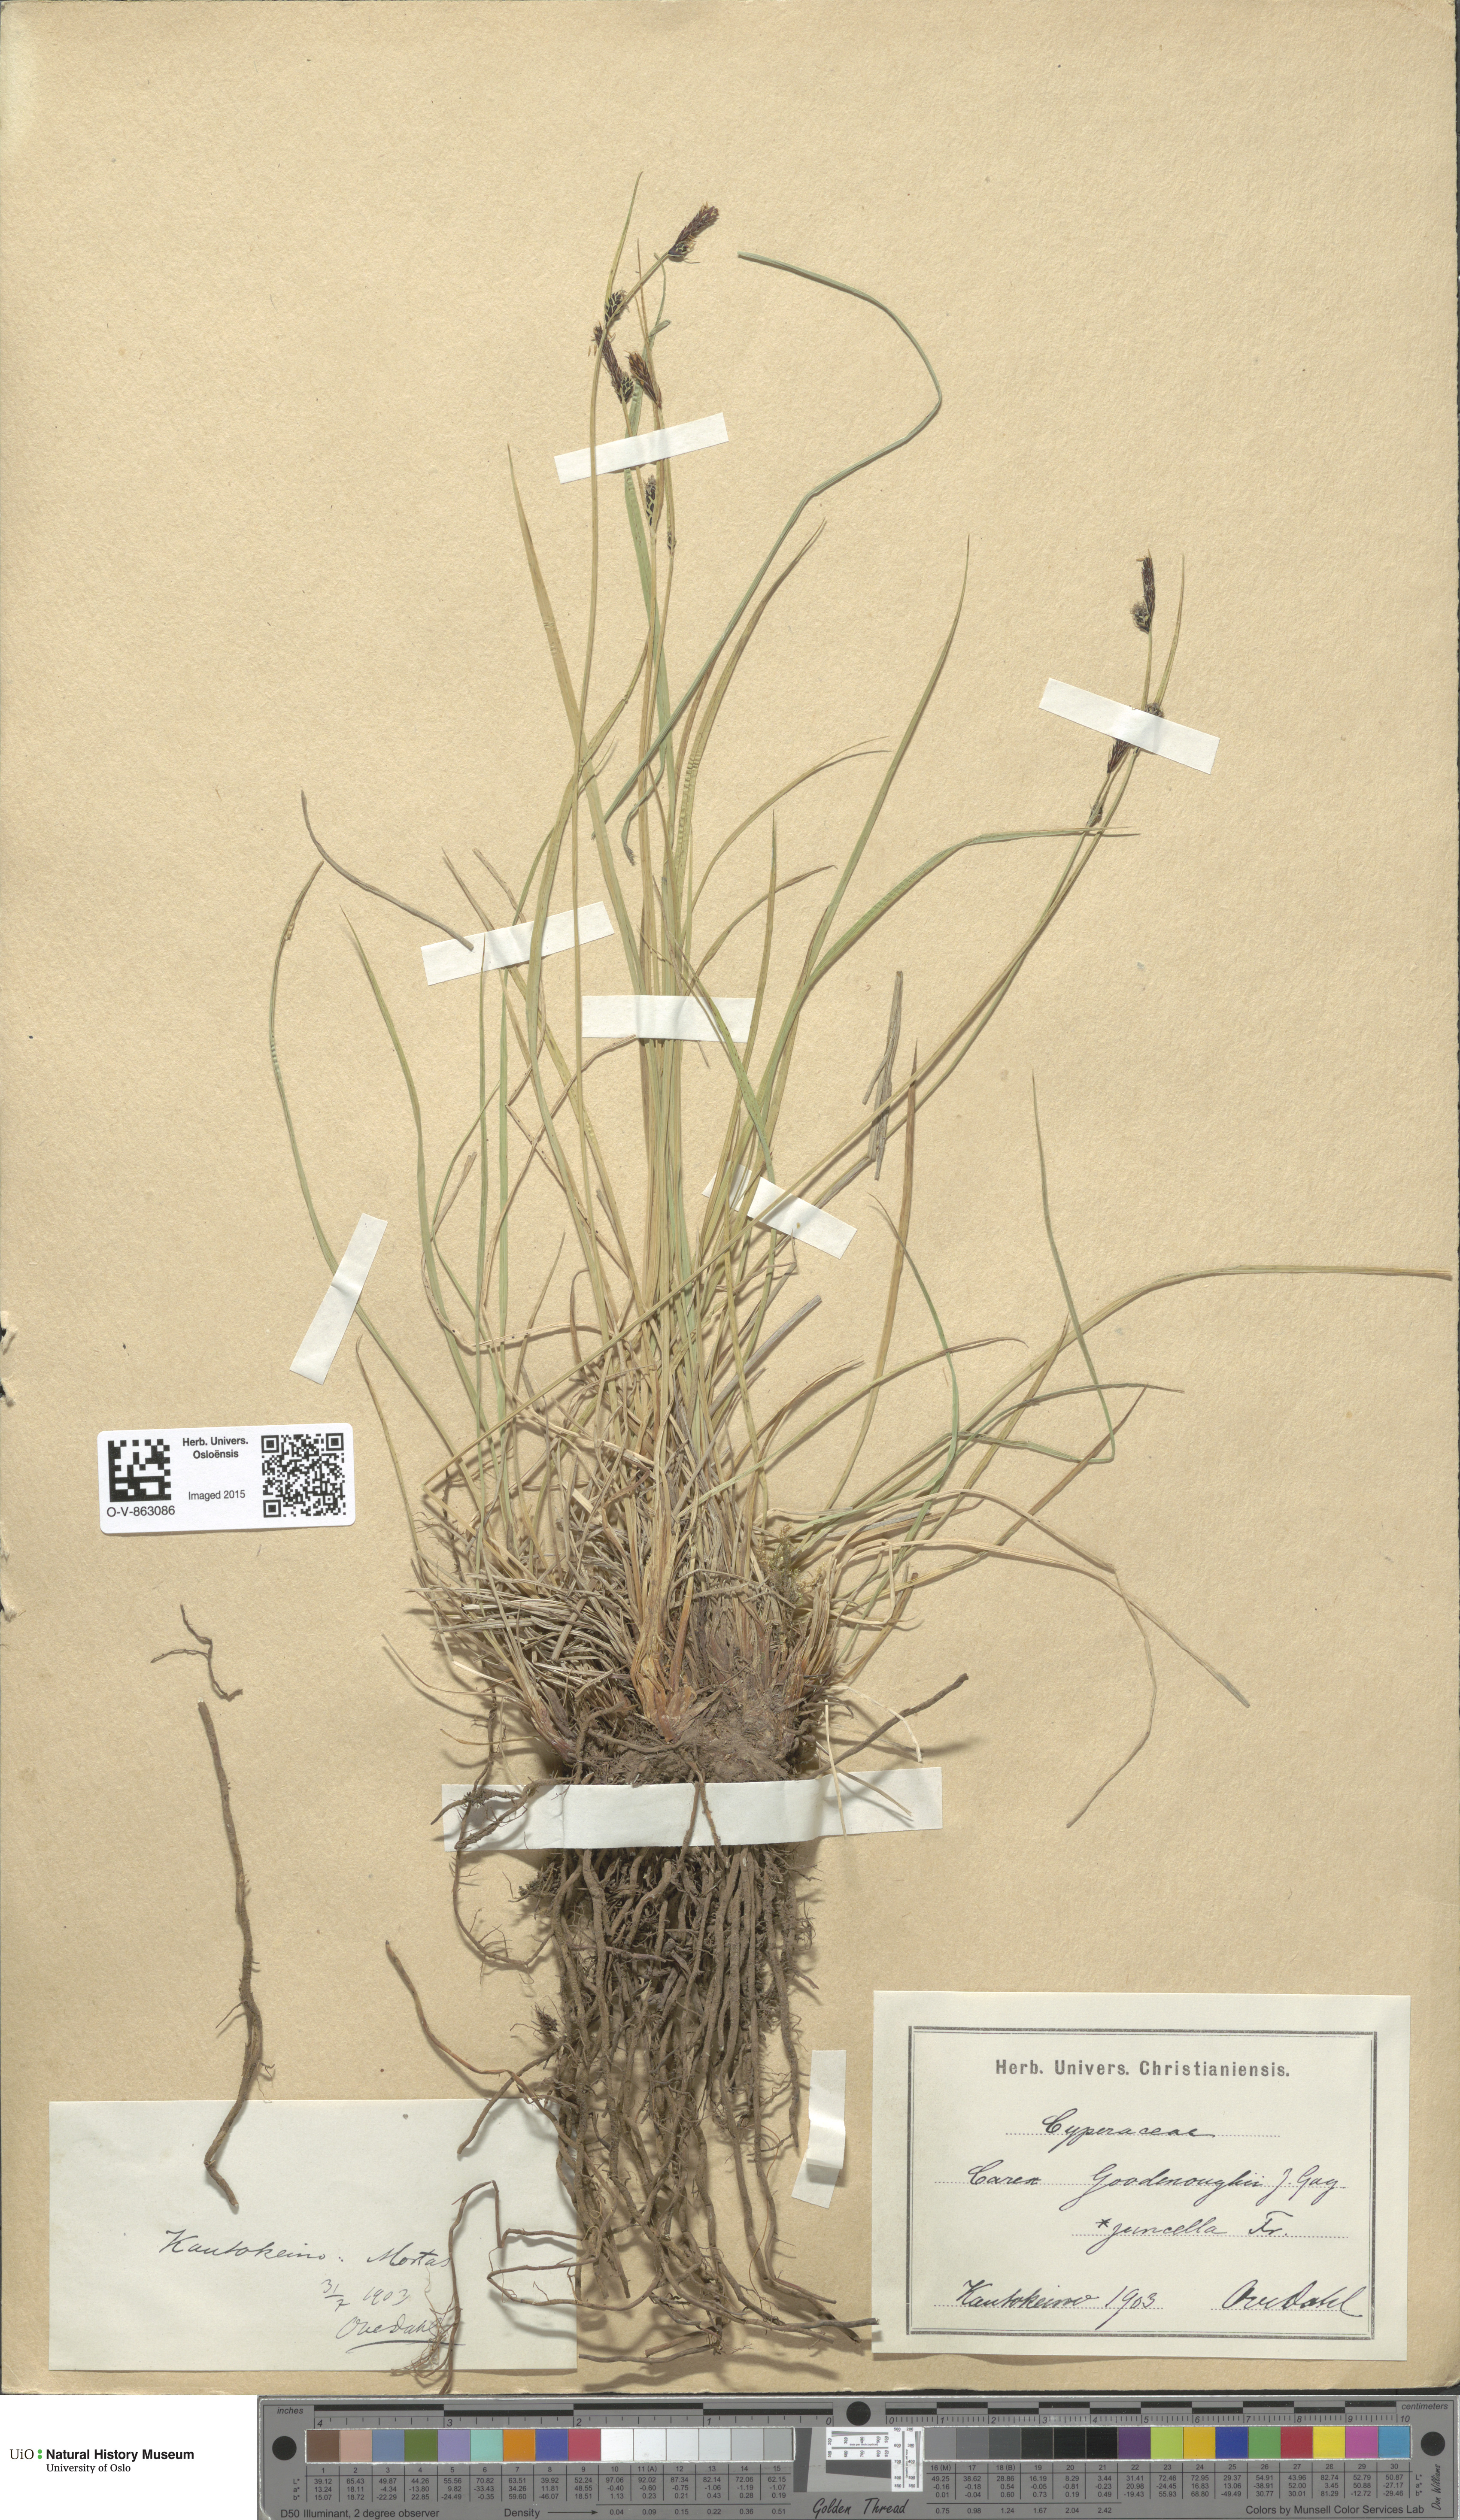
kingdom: Plantae
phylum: Tracheophyta
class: Liliopsida
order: Poales
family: Cyperaceae
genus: Carex
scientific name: Carex nigra
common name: Common sedge
